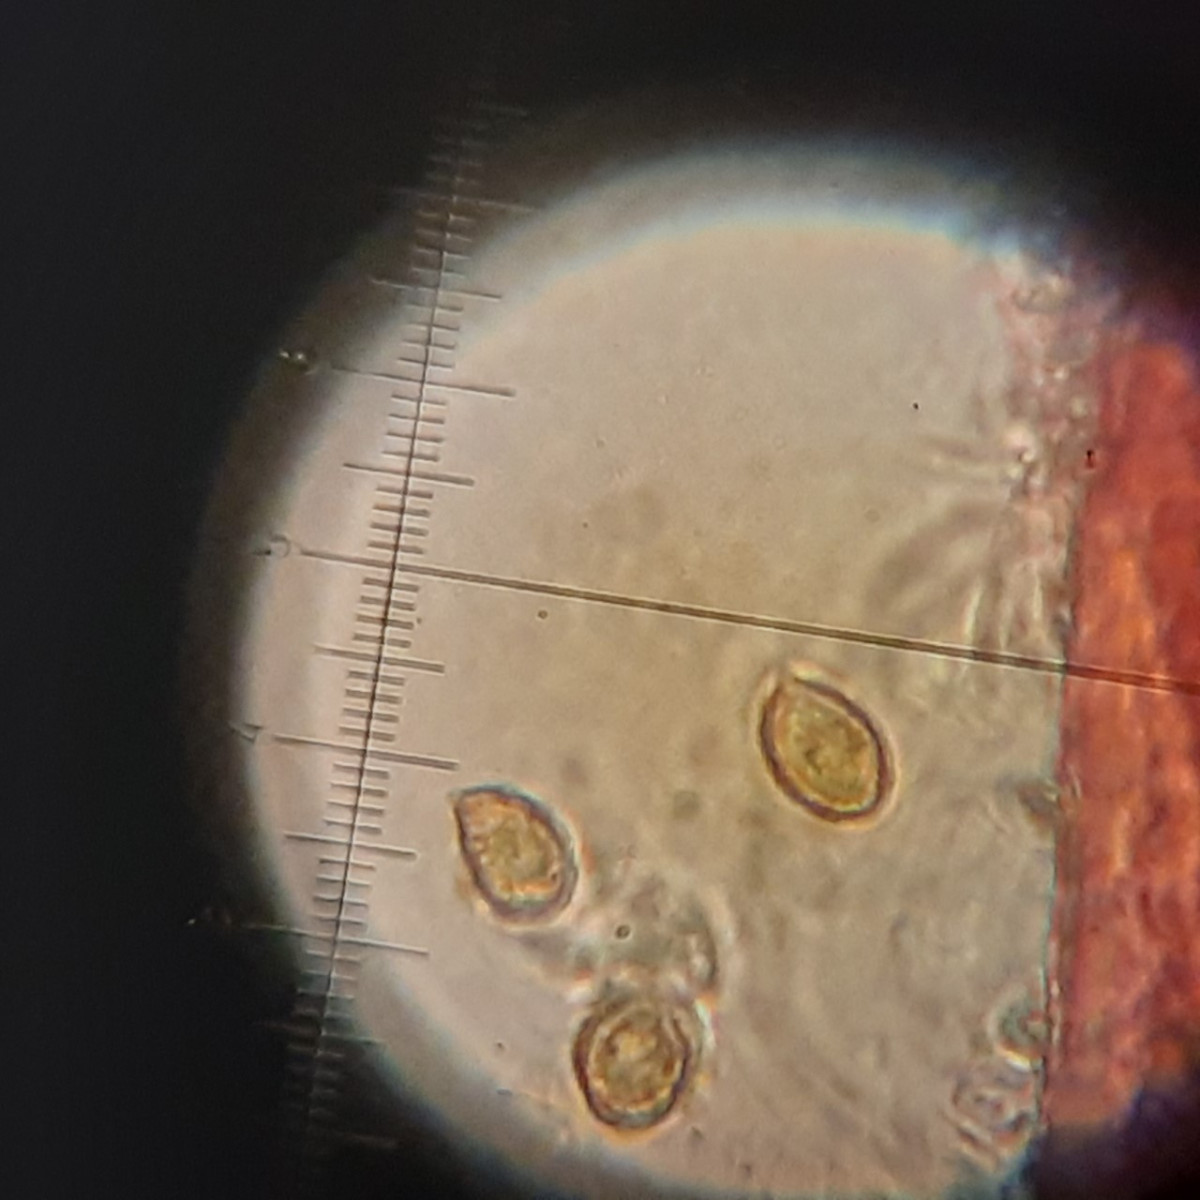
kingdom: Fungi
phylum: Basidiomycota
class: Agaricomycetes
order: Agaricales
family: Cortinariaceae
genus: Cortinarius
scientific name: Cortinarius geraniolens
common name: geranium-slørhat
